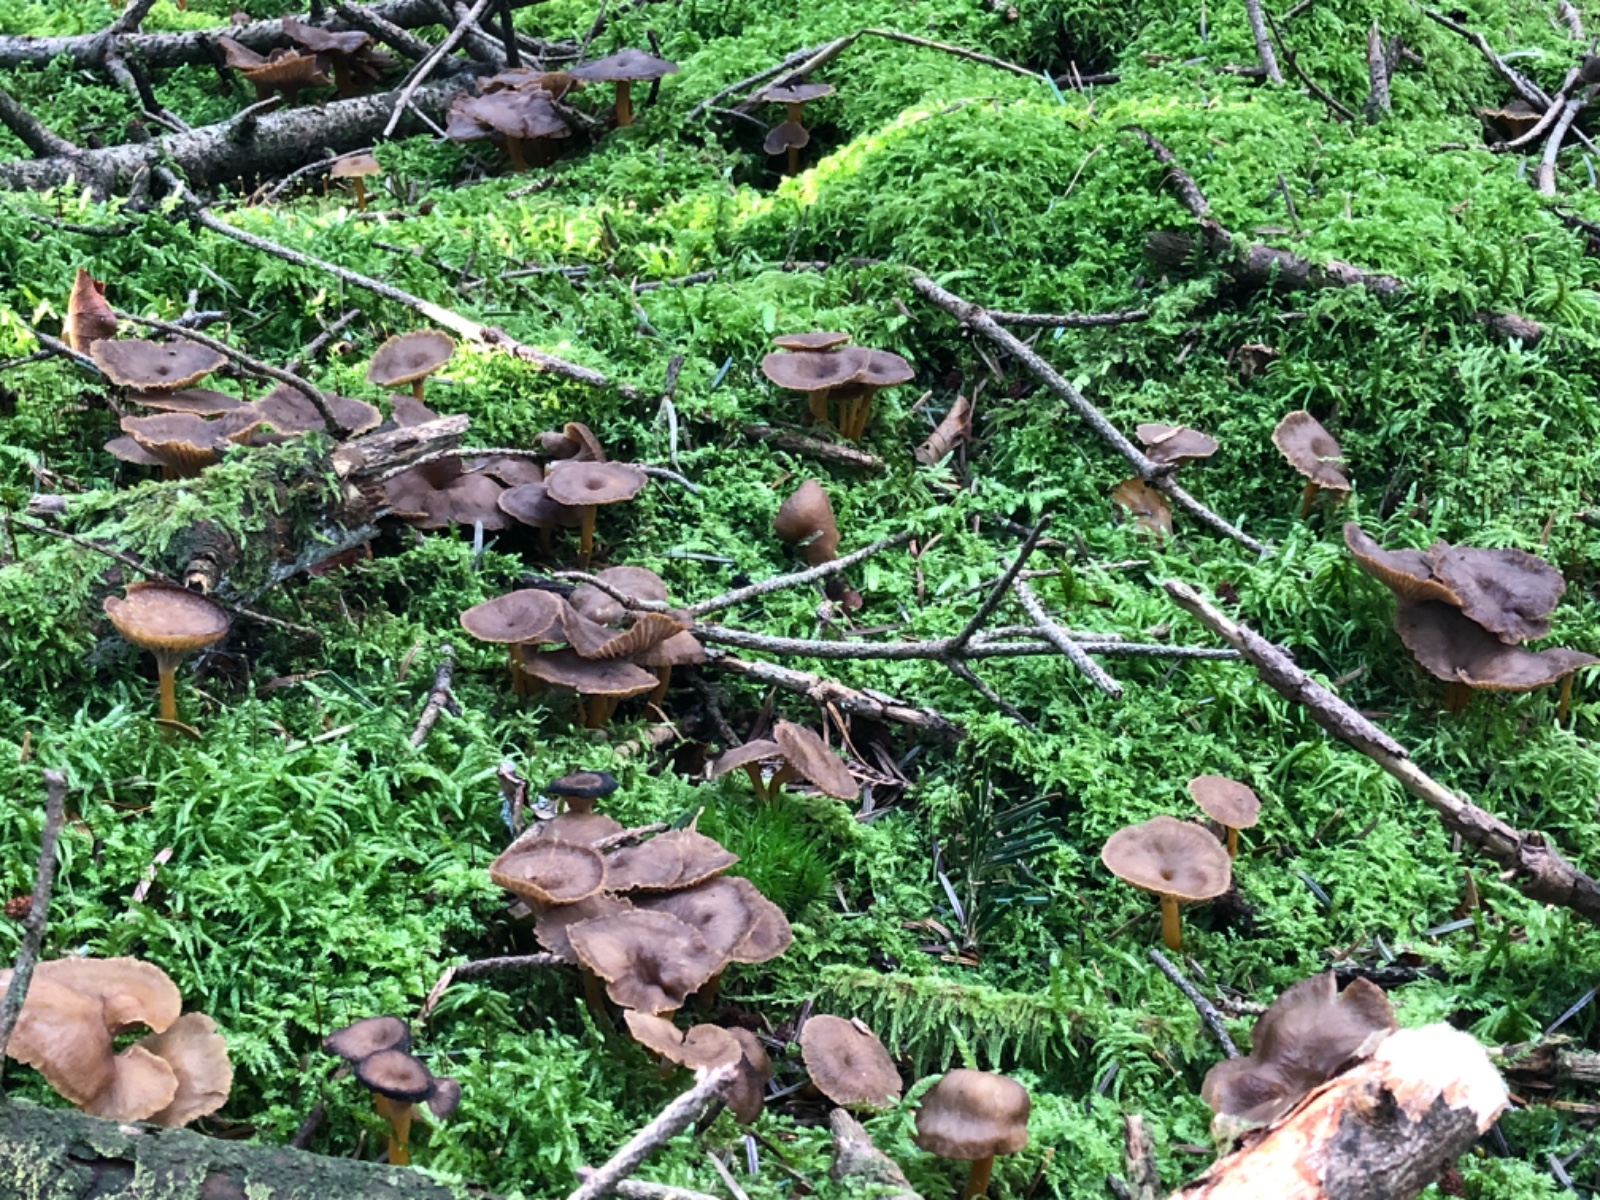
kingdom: Fungi
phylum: Basidiomycota
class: Agaricomycetes
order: Cantharellales
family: Hydnaceae
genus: Craterellus
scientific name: Craterellus tubaeformis
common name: tragt-kantarel
